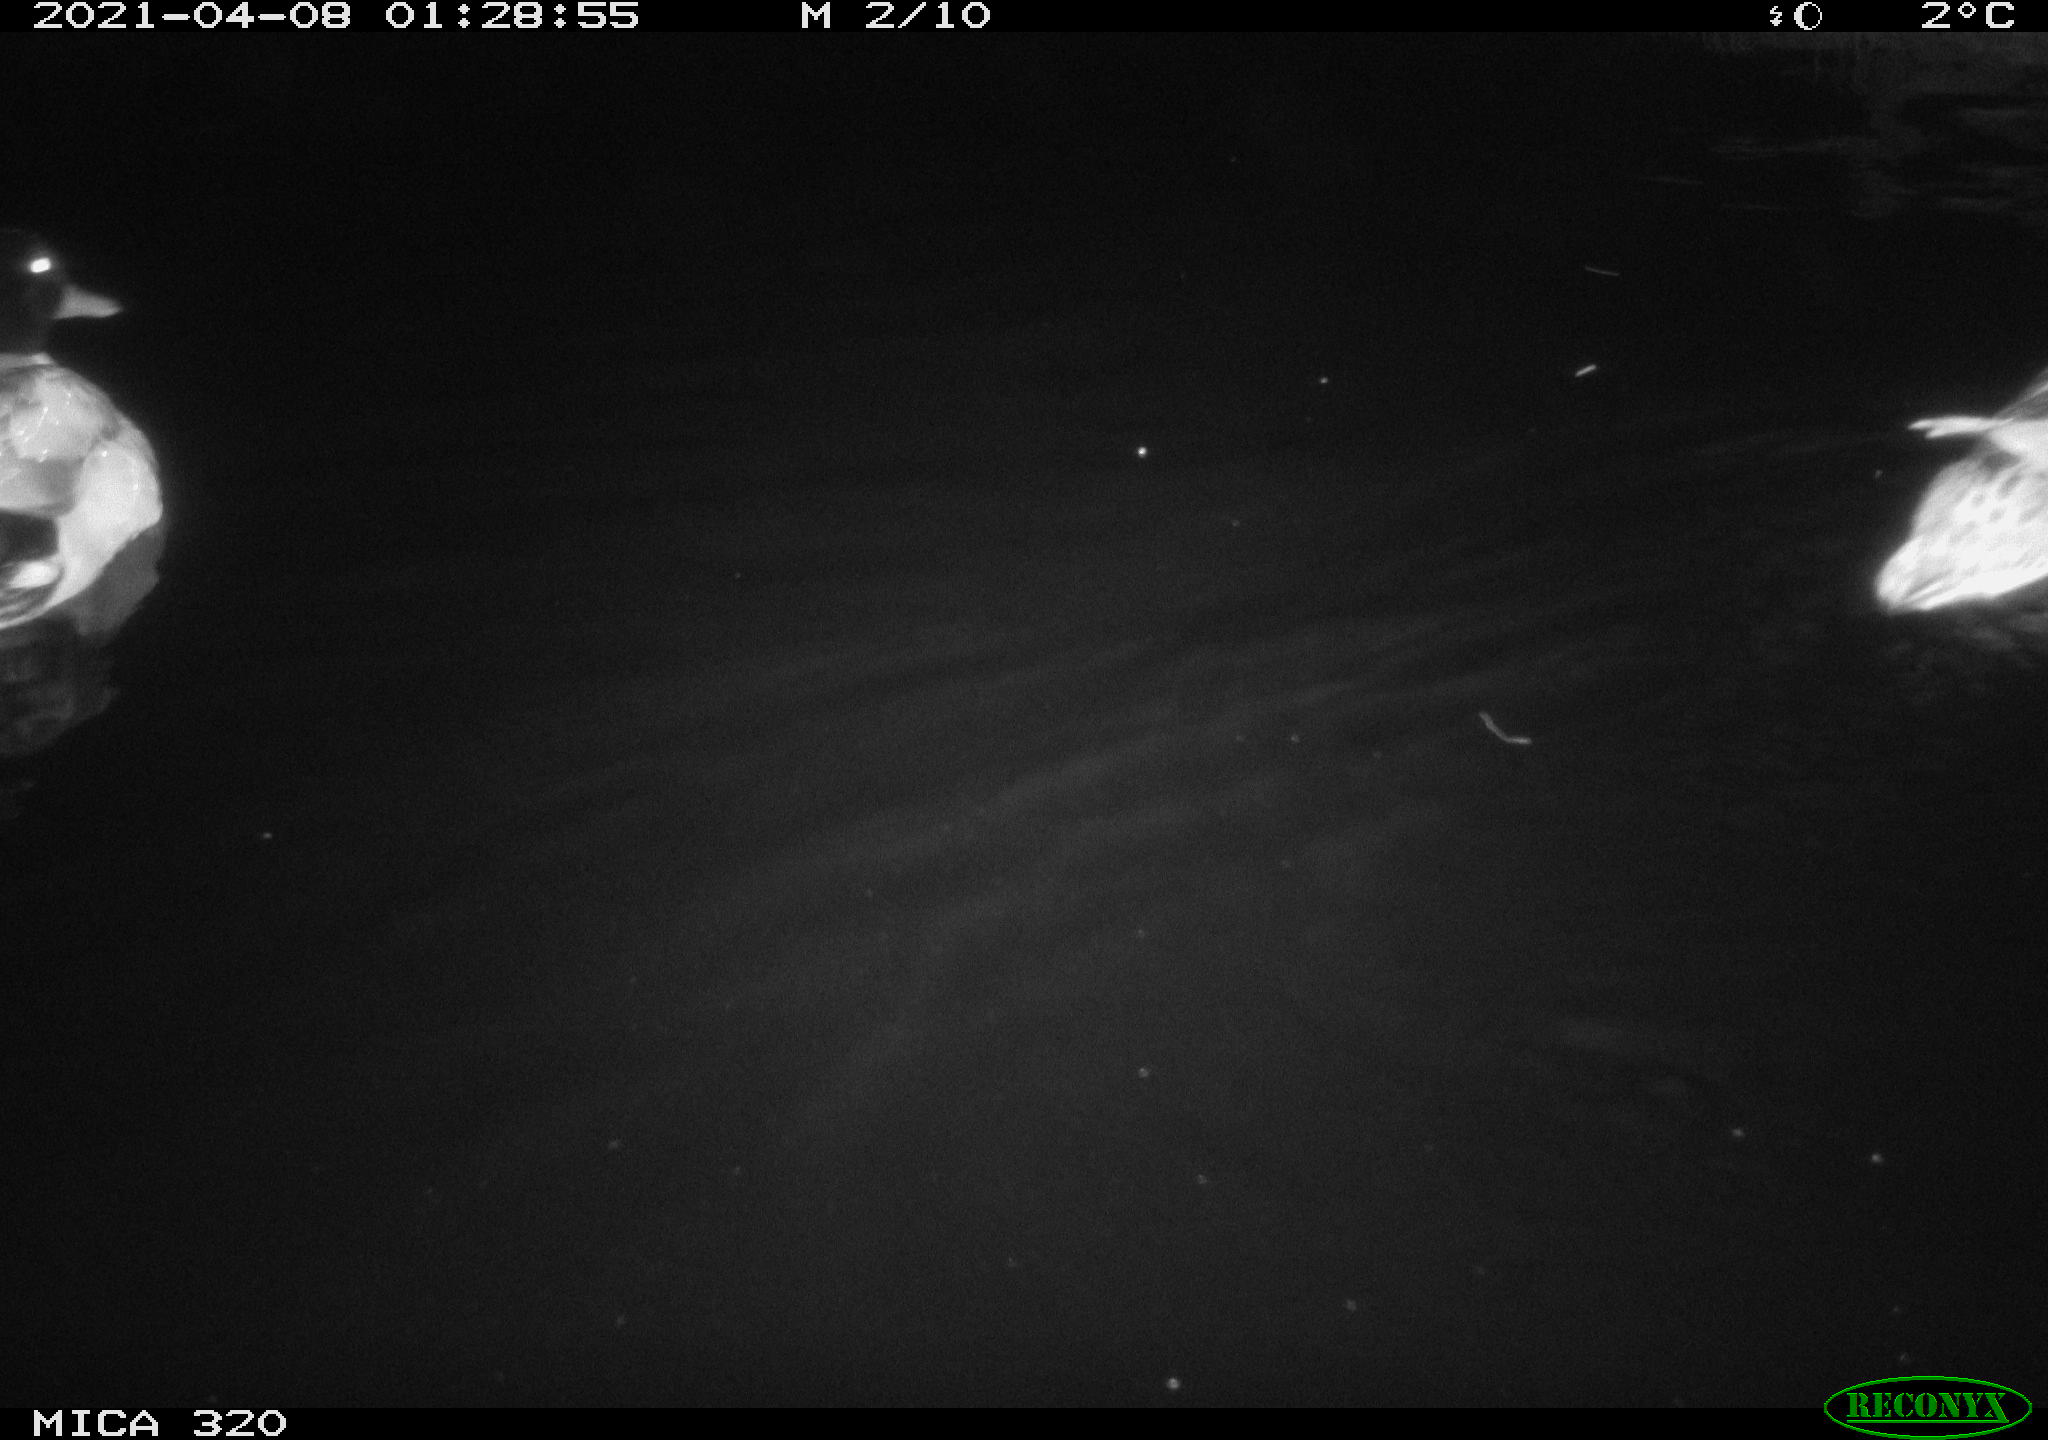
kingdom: Animalia
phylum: Chordata
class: Aves
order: Anseriformes
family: Anatidae
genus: Anas
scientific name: Anas platyrhynchos
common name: Mallard
